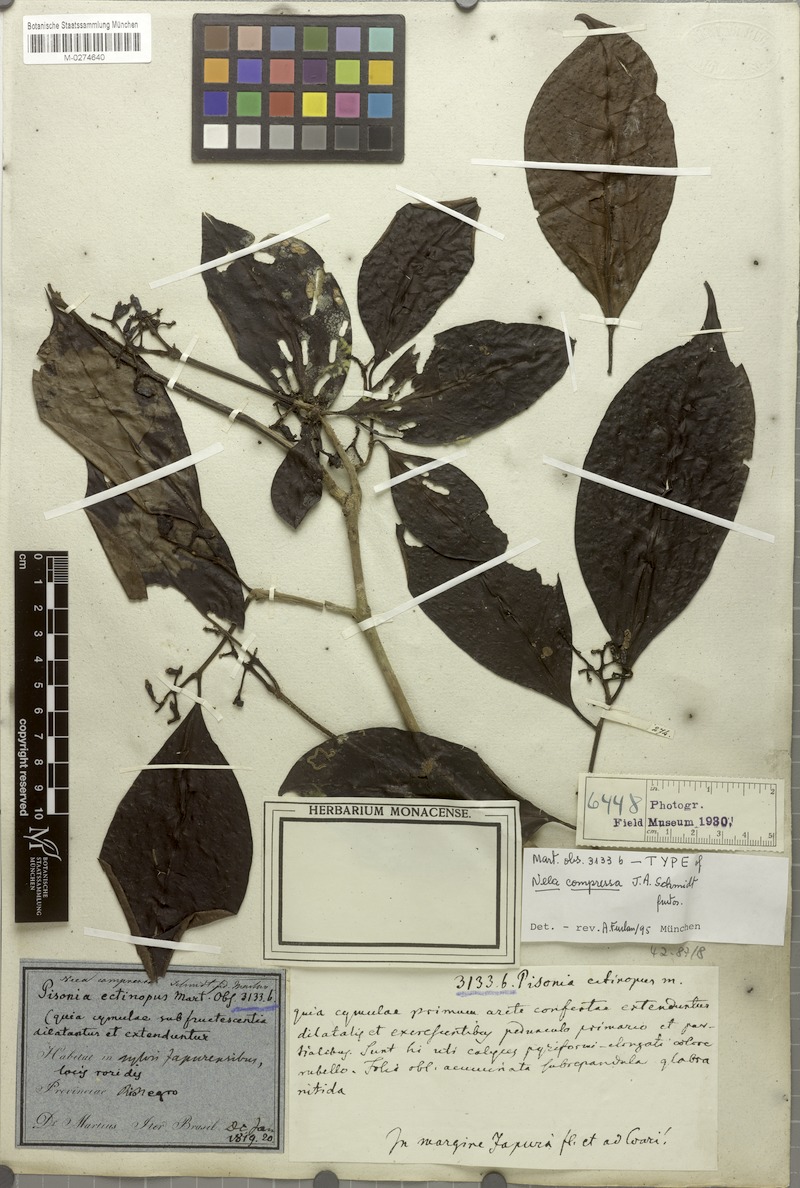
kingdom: Plantae
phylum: Tracheophyta
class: Magnoliopsida
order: Caryophyllales
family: Nyctaginaceae
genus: Neea
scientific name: Neea oppositifolia
